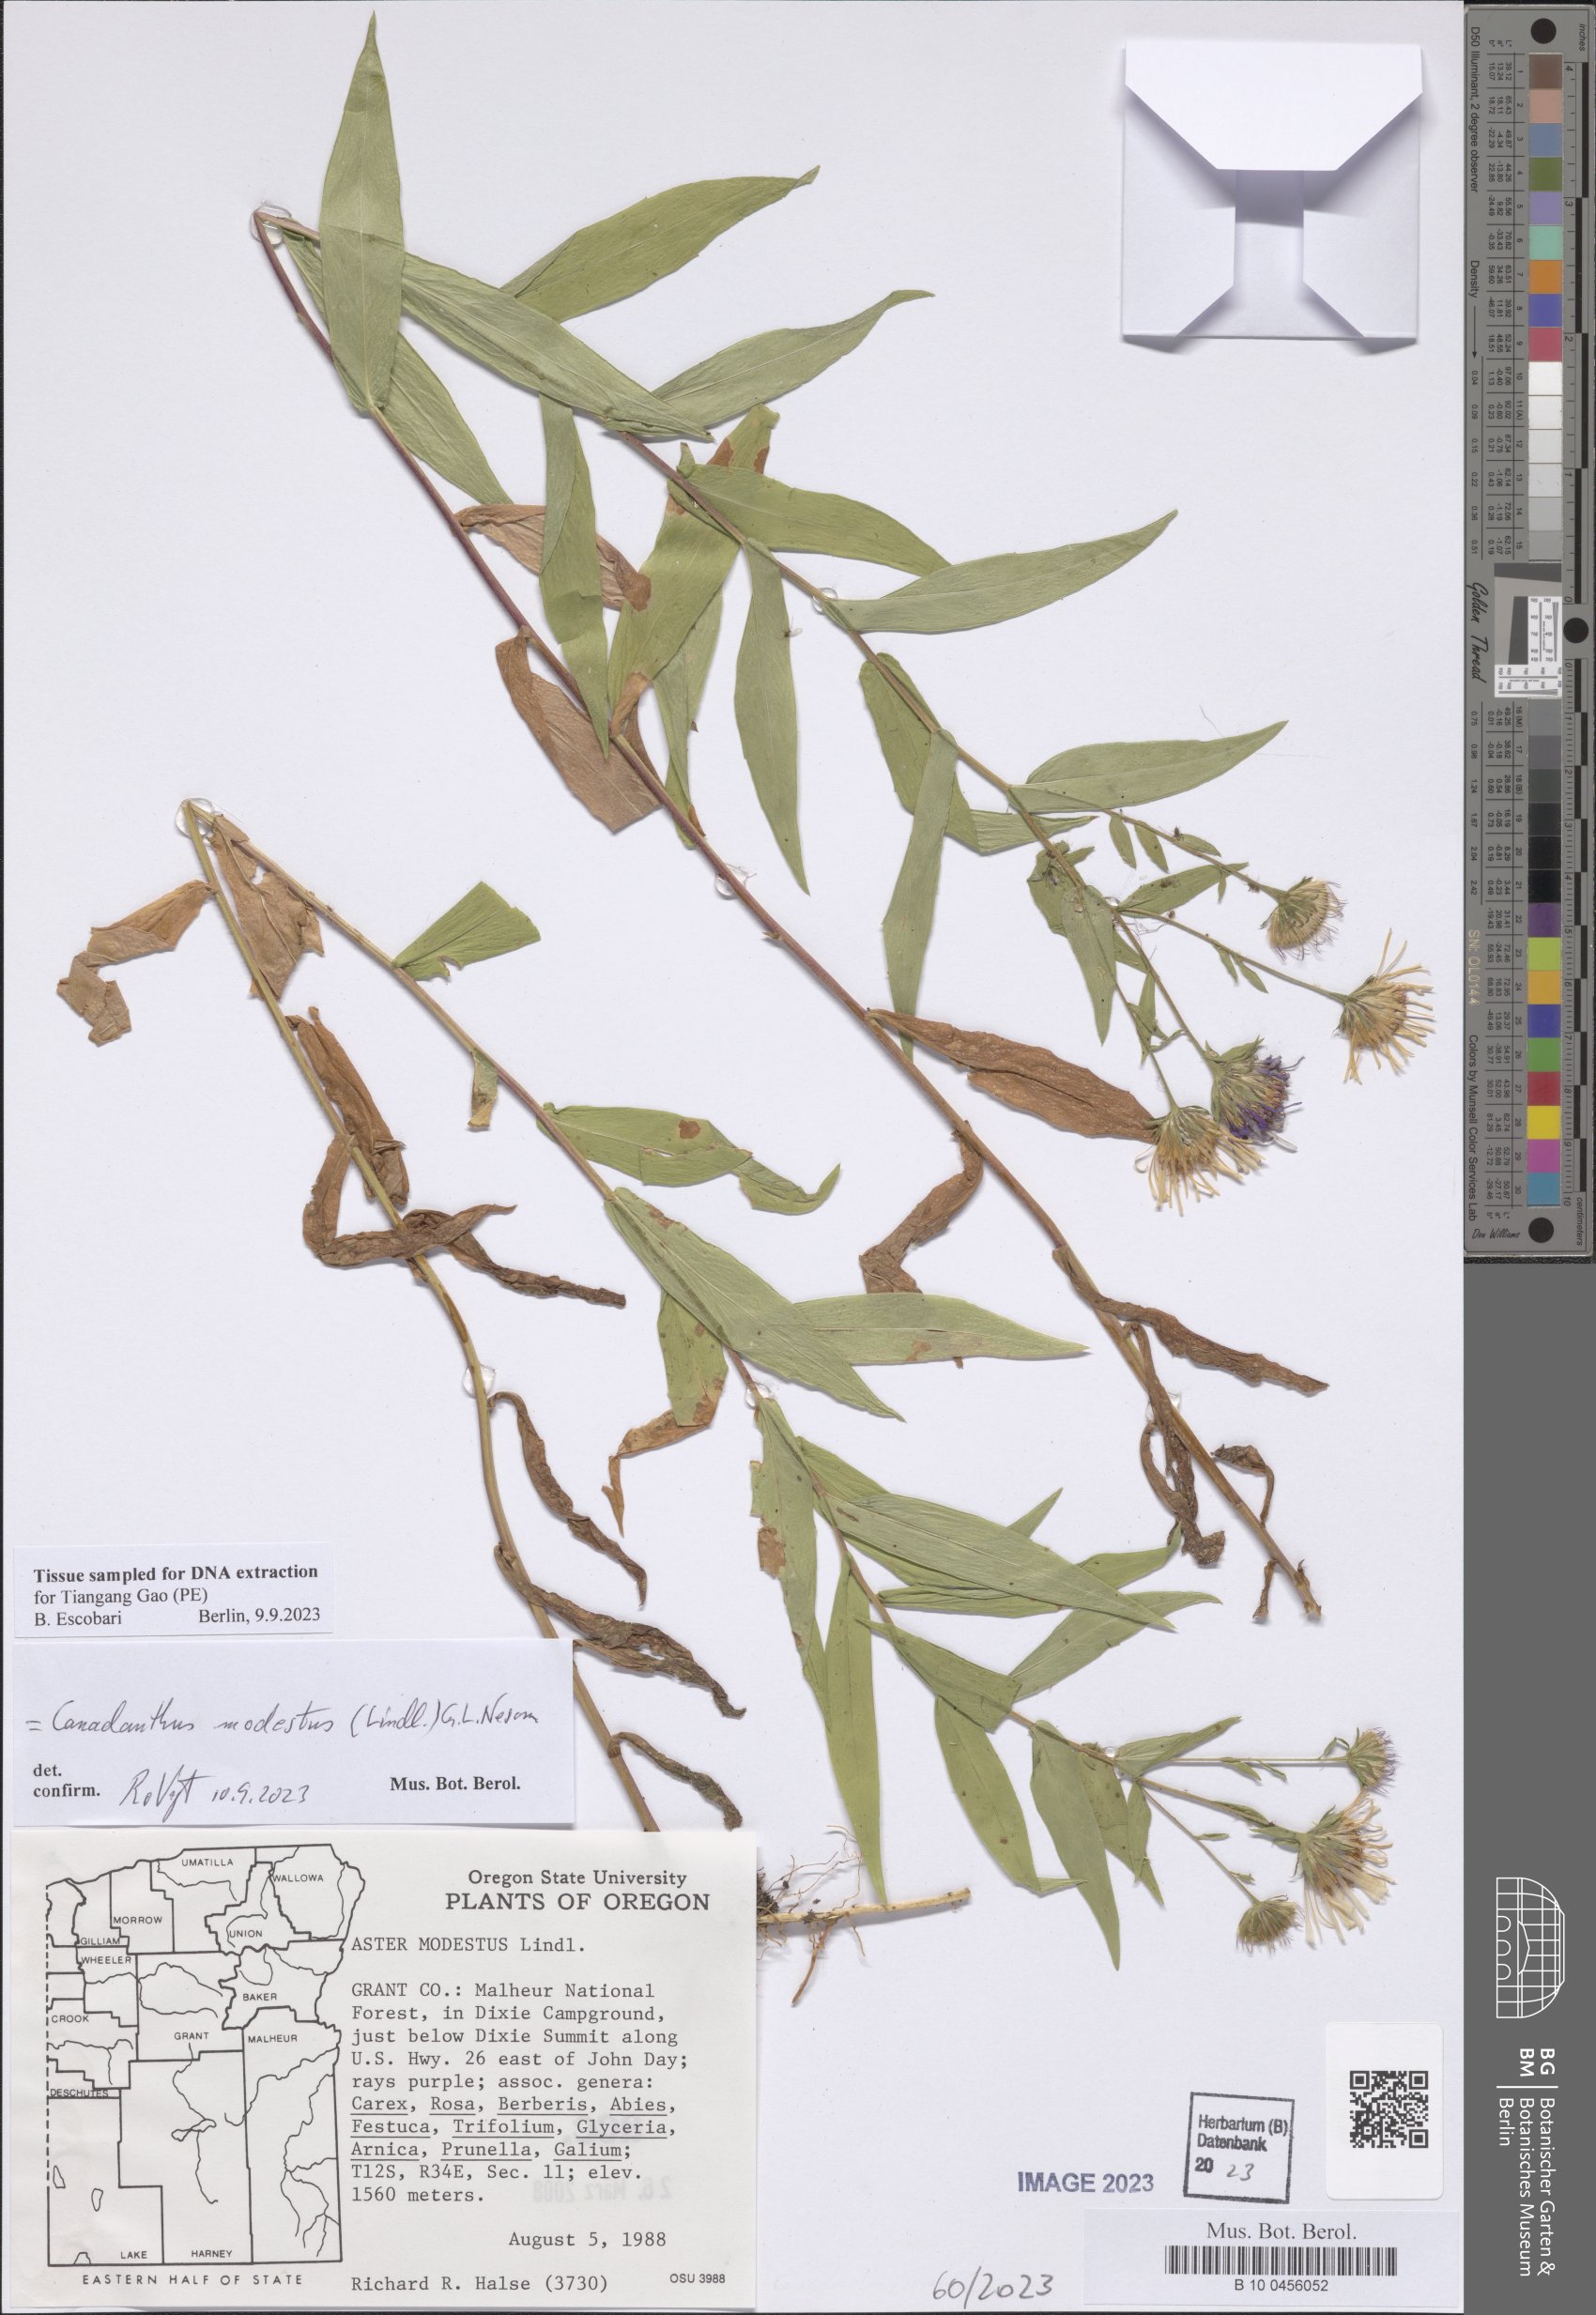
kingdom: Plantae
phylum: Tracheophyta
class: Magnoliopsida
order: Asterales
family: Asteraceae
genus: Canadanthus
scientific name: Canadanthus modestus
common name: Great northern aster
